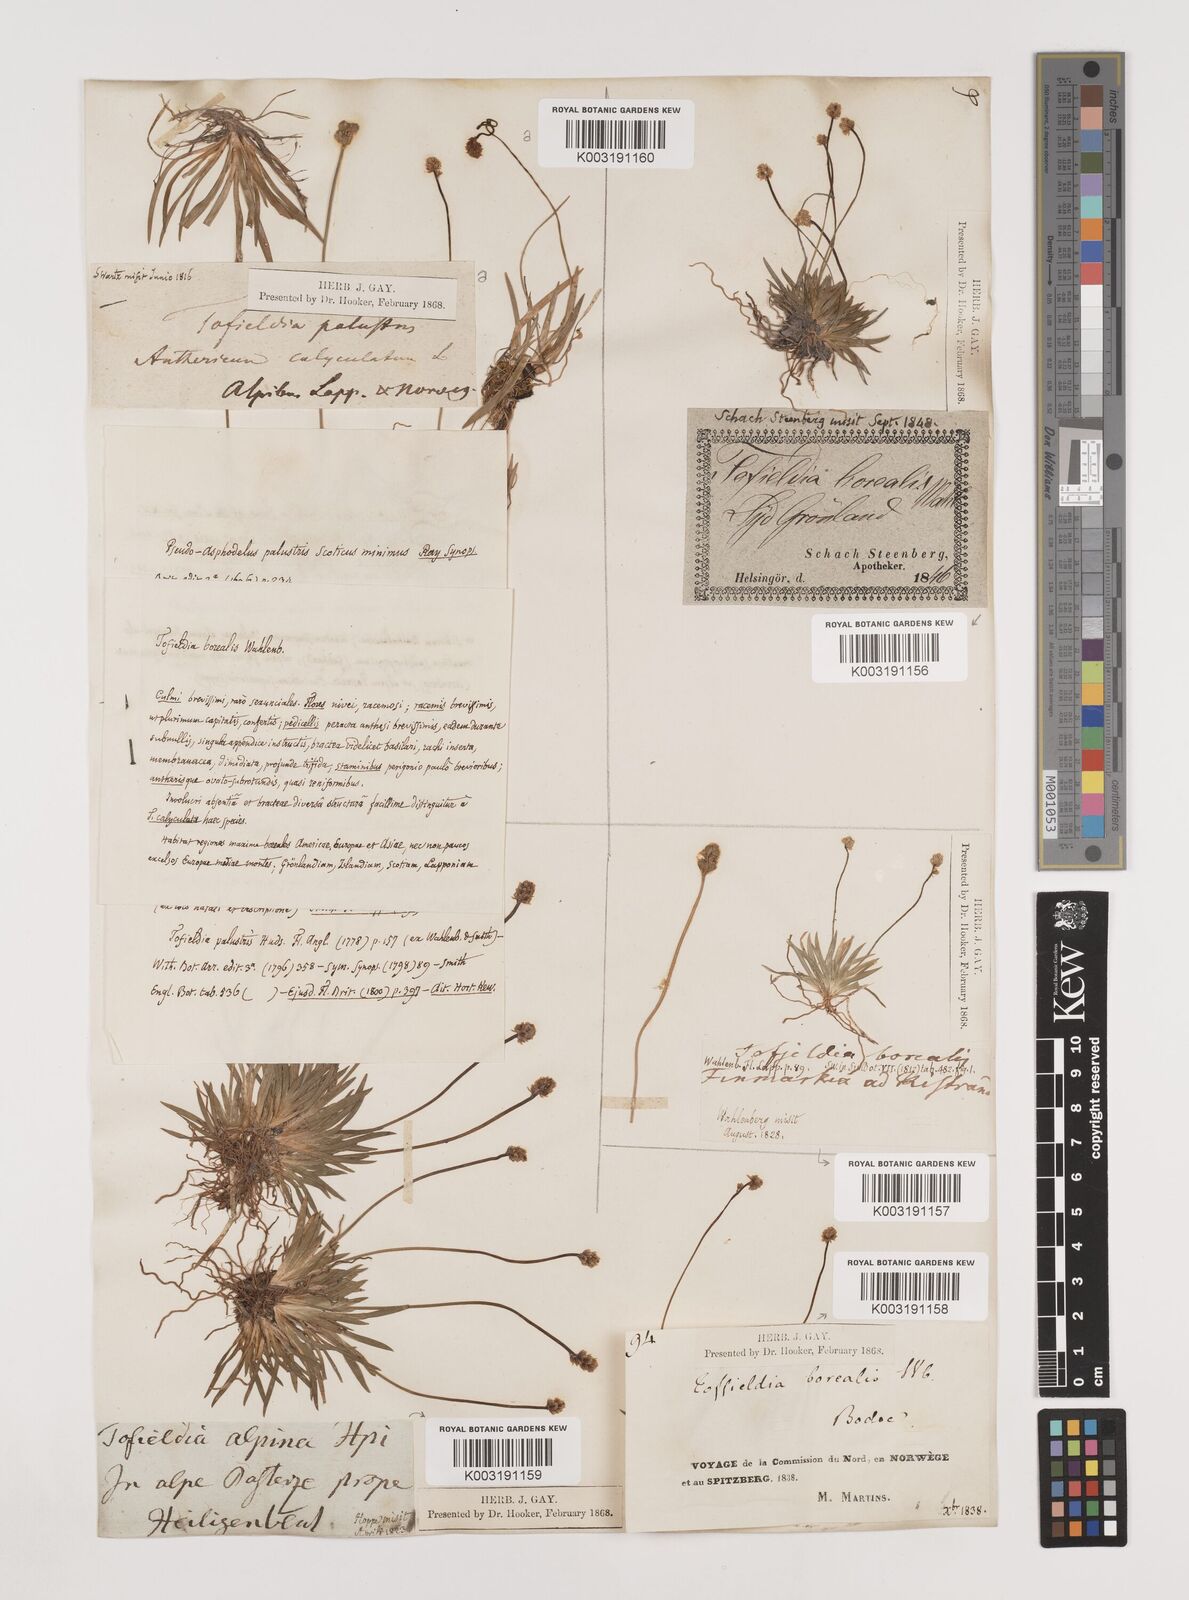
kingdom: Plantae
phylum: Tracheophyta
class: Liliopsida
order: Alismatales
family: Tofieldiaceae
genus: Tofieldia
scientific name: Tofieldia pusilla
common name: Scottish false asphodel
